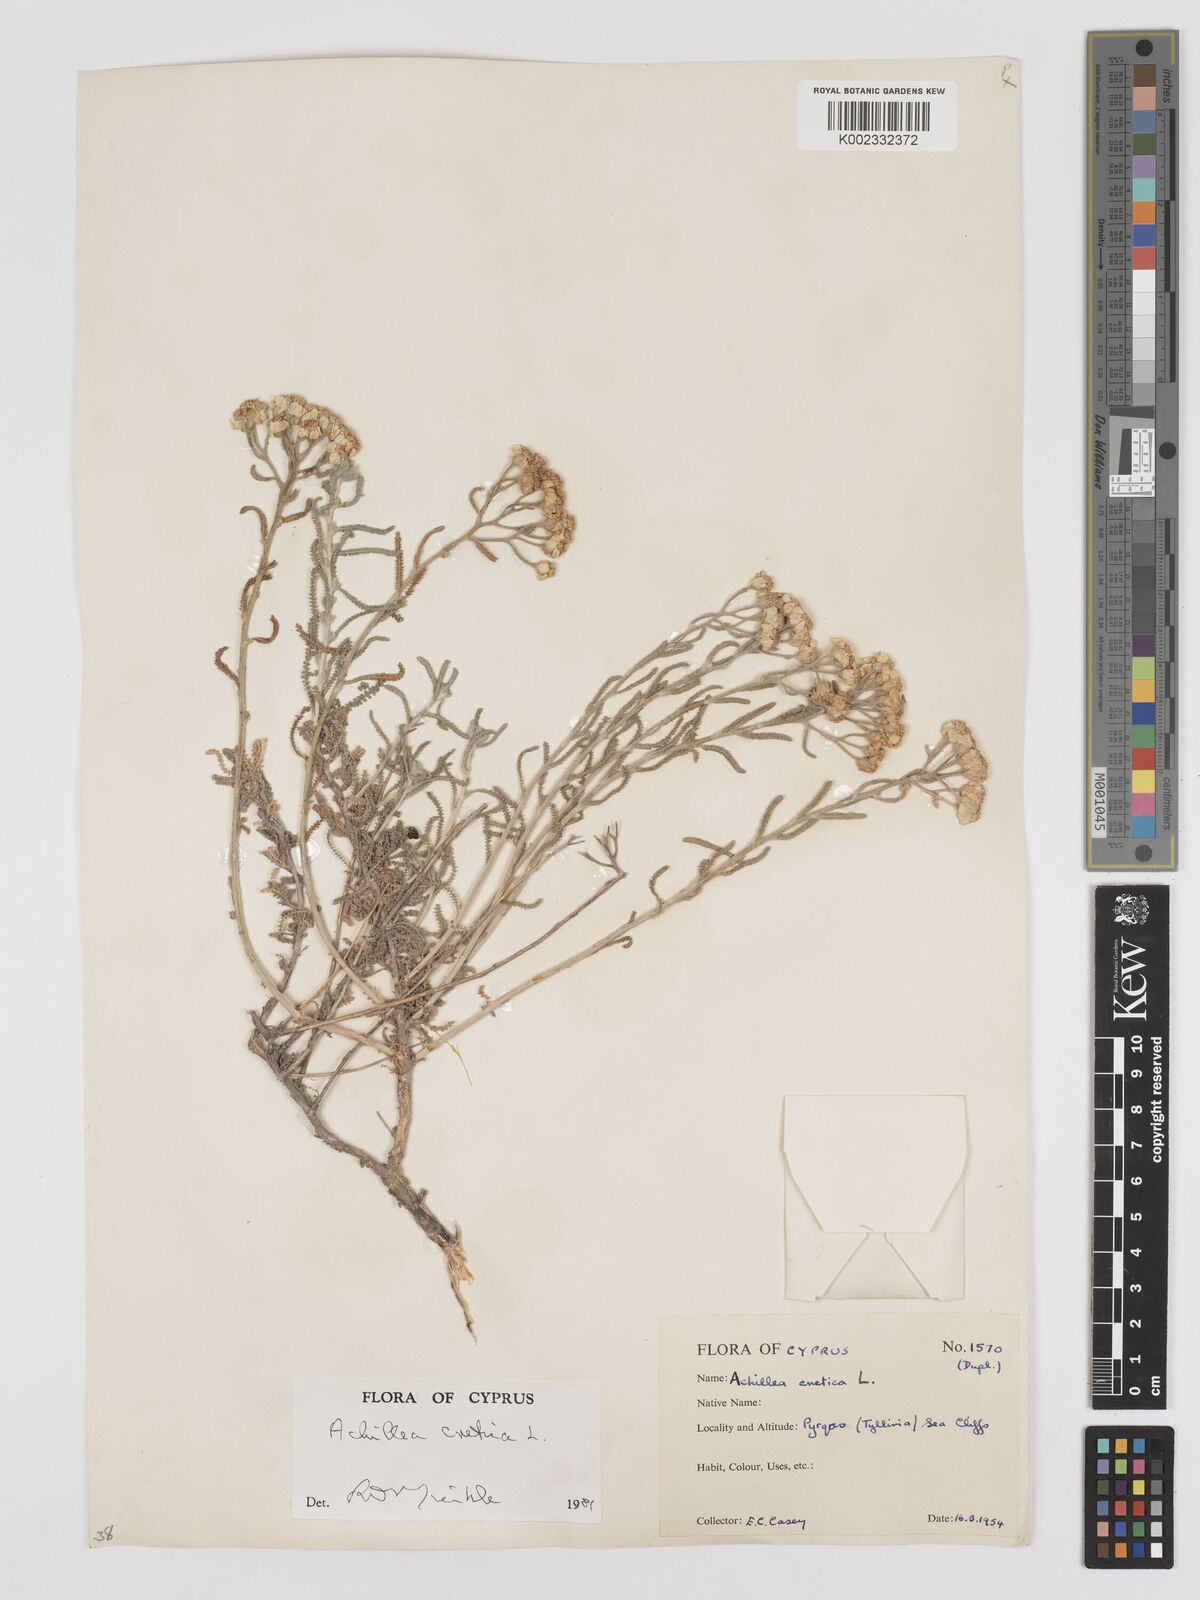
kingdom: Plantae
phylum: Tracheophyta
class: Magnoliopsida
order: Asterales
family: Asteraceae
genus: Achillea
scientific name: Achillea cretica
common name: Chamomile-leaved lavender-cotton
